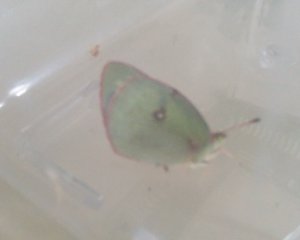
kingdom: Animalia
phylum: Arthropoda
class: Insecta
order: Lepidoptera
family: Pieridae
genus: Colias
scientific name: Colias philodice
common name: Clouded Sulphur
